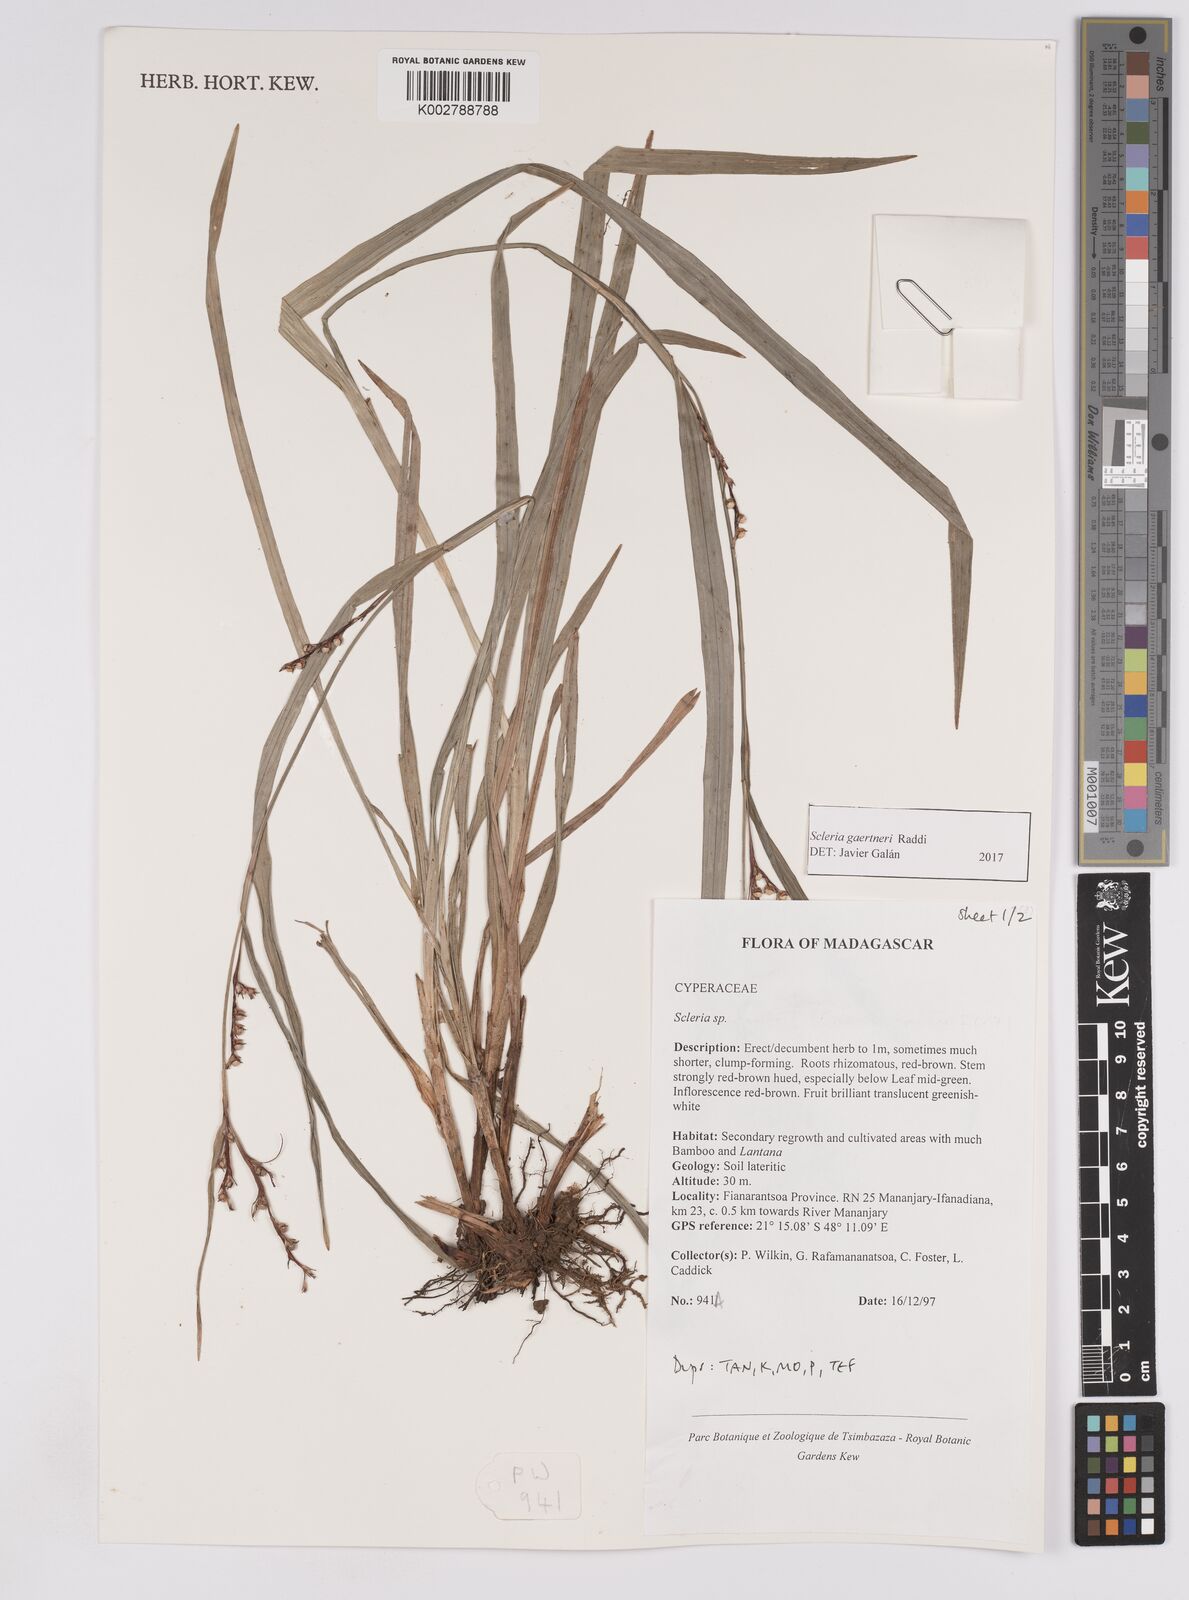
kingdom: Plantae
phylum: Tracheophyta
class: Liliopsida
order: Poales
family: Cyperaceae
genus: Scleria
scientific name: Scleria gaertneri
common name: Cortadera blanca
